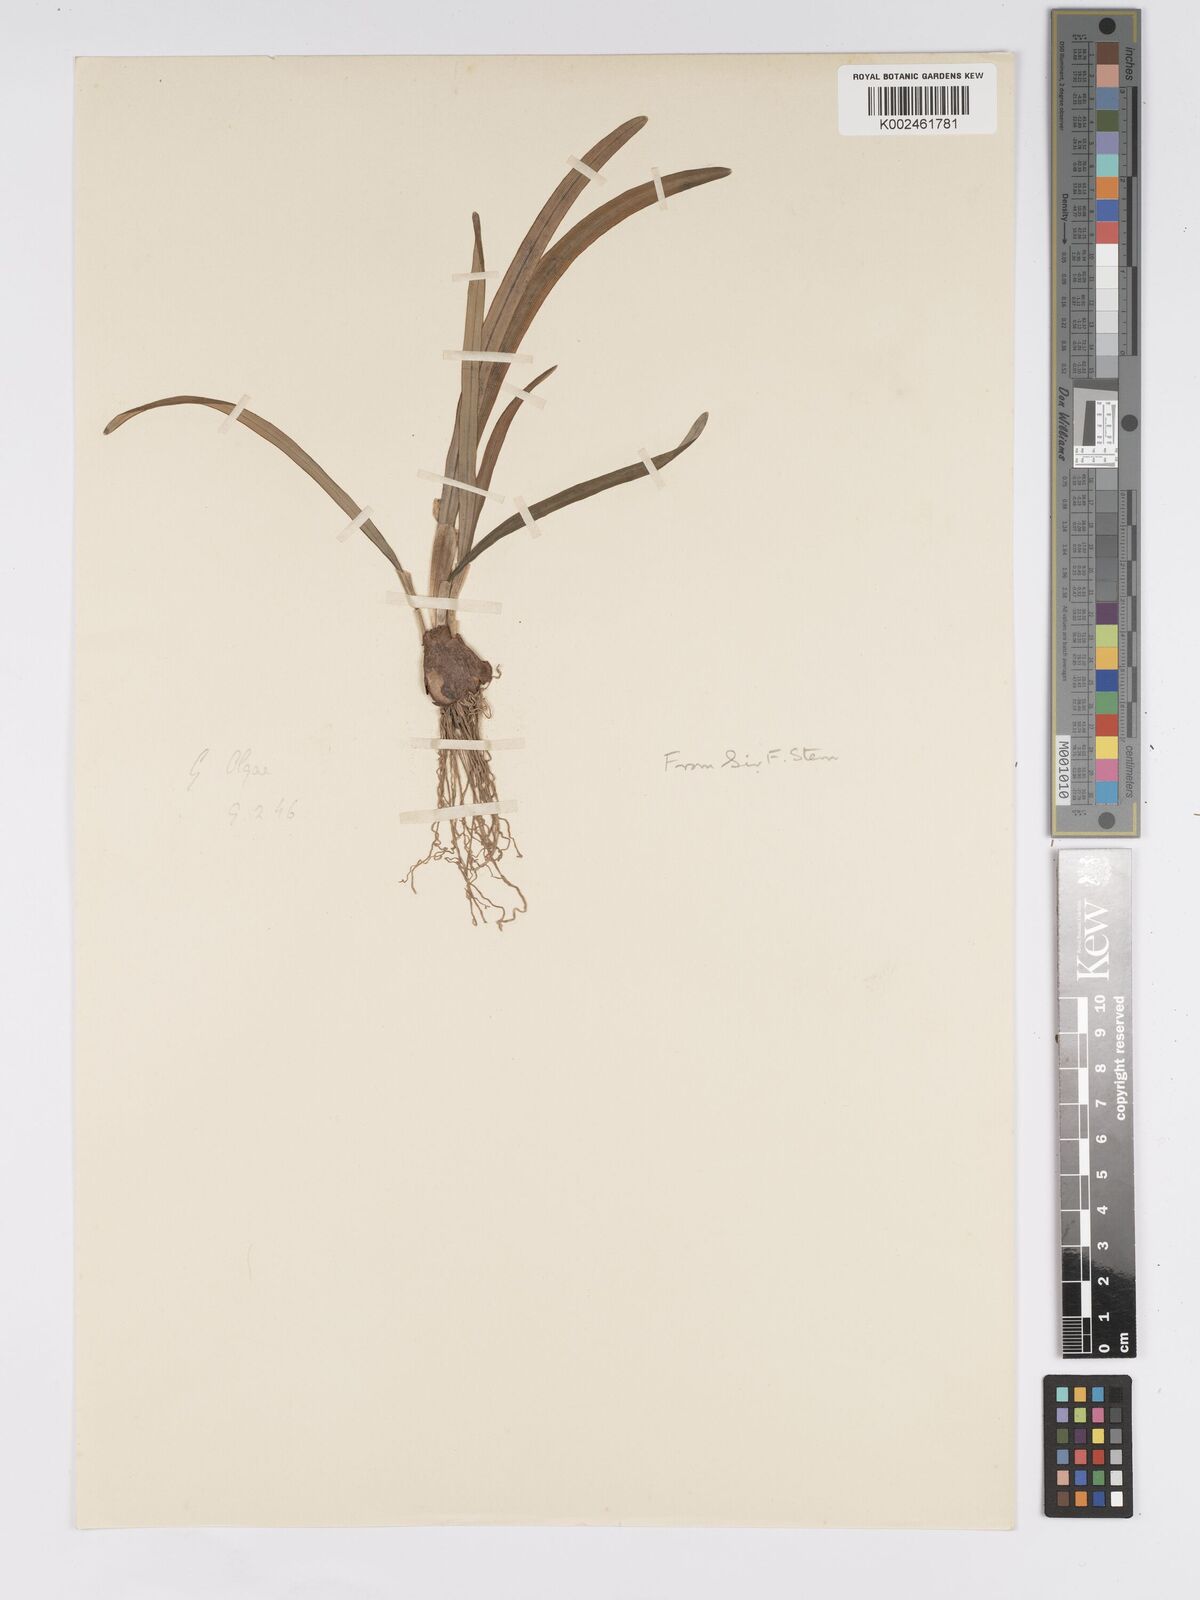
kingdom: Plantae
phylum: Tracheophyta
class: Liliopsida
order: Asparagales
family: Amaryllidaceae
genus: Galanthus
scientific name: Galanthus
